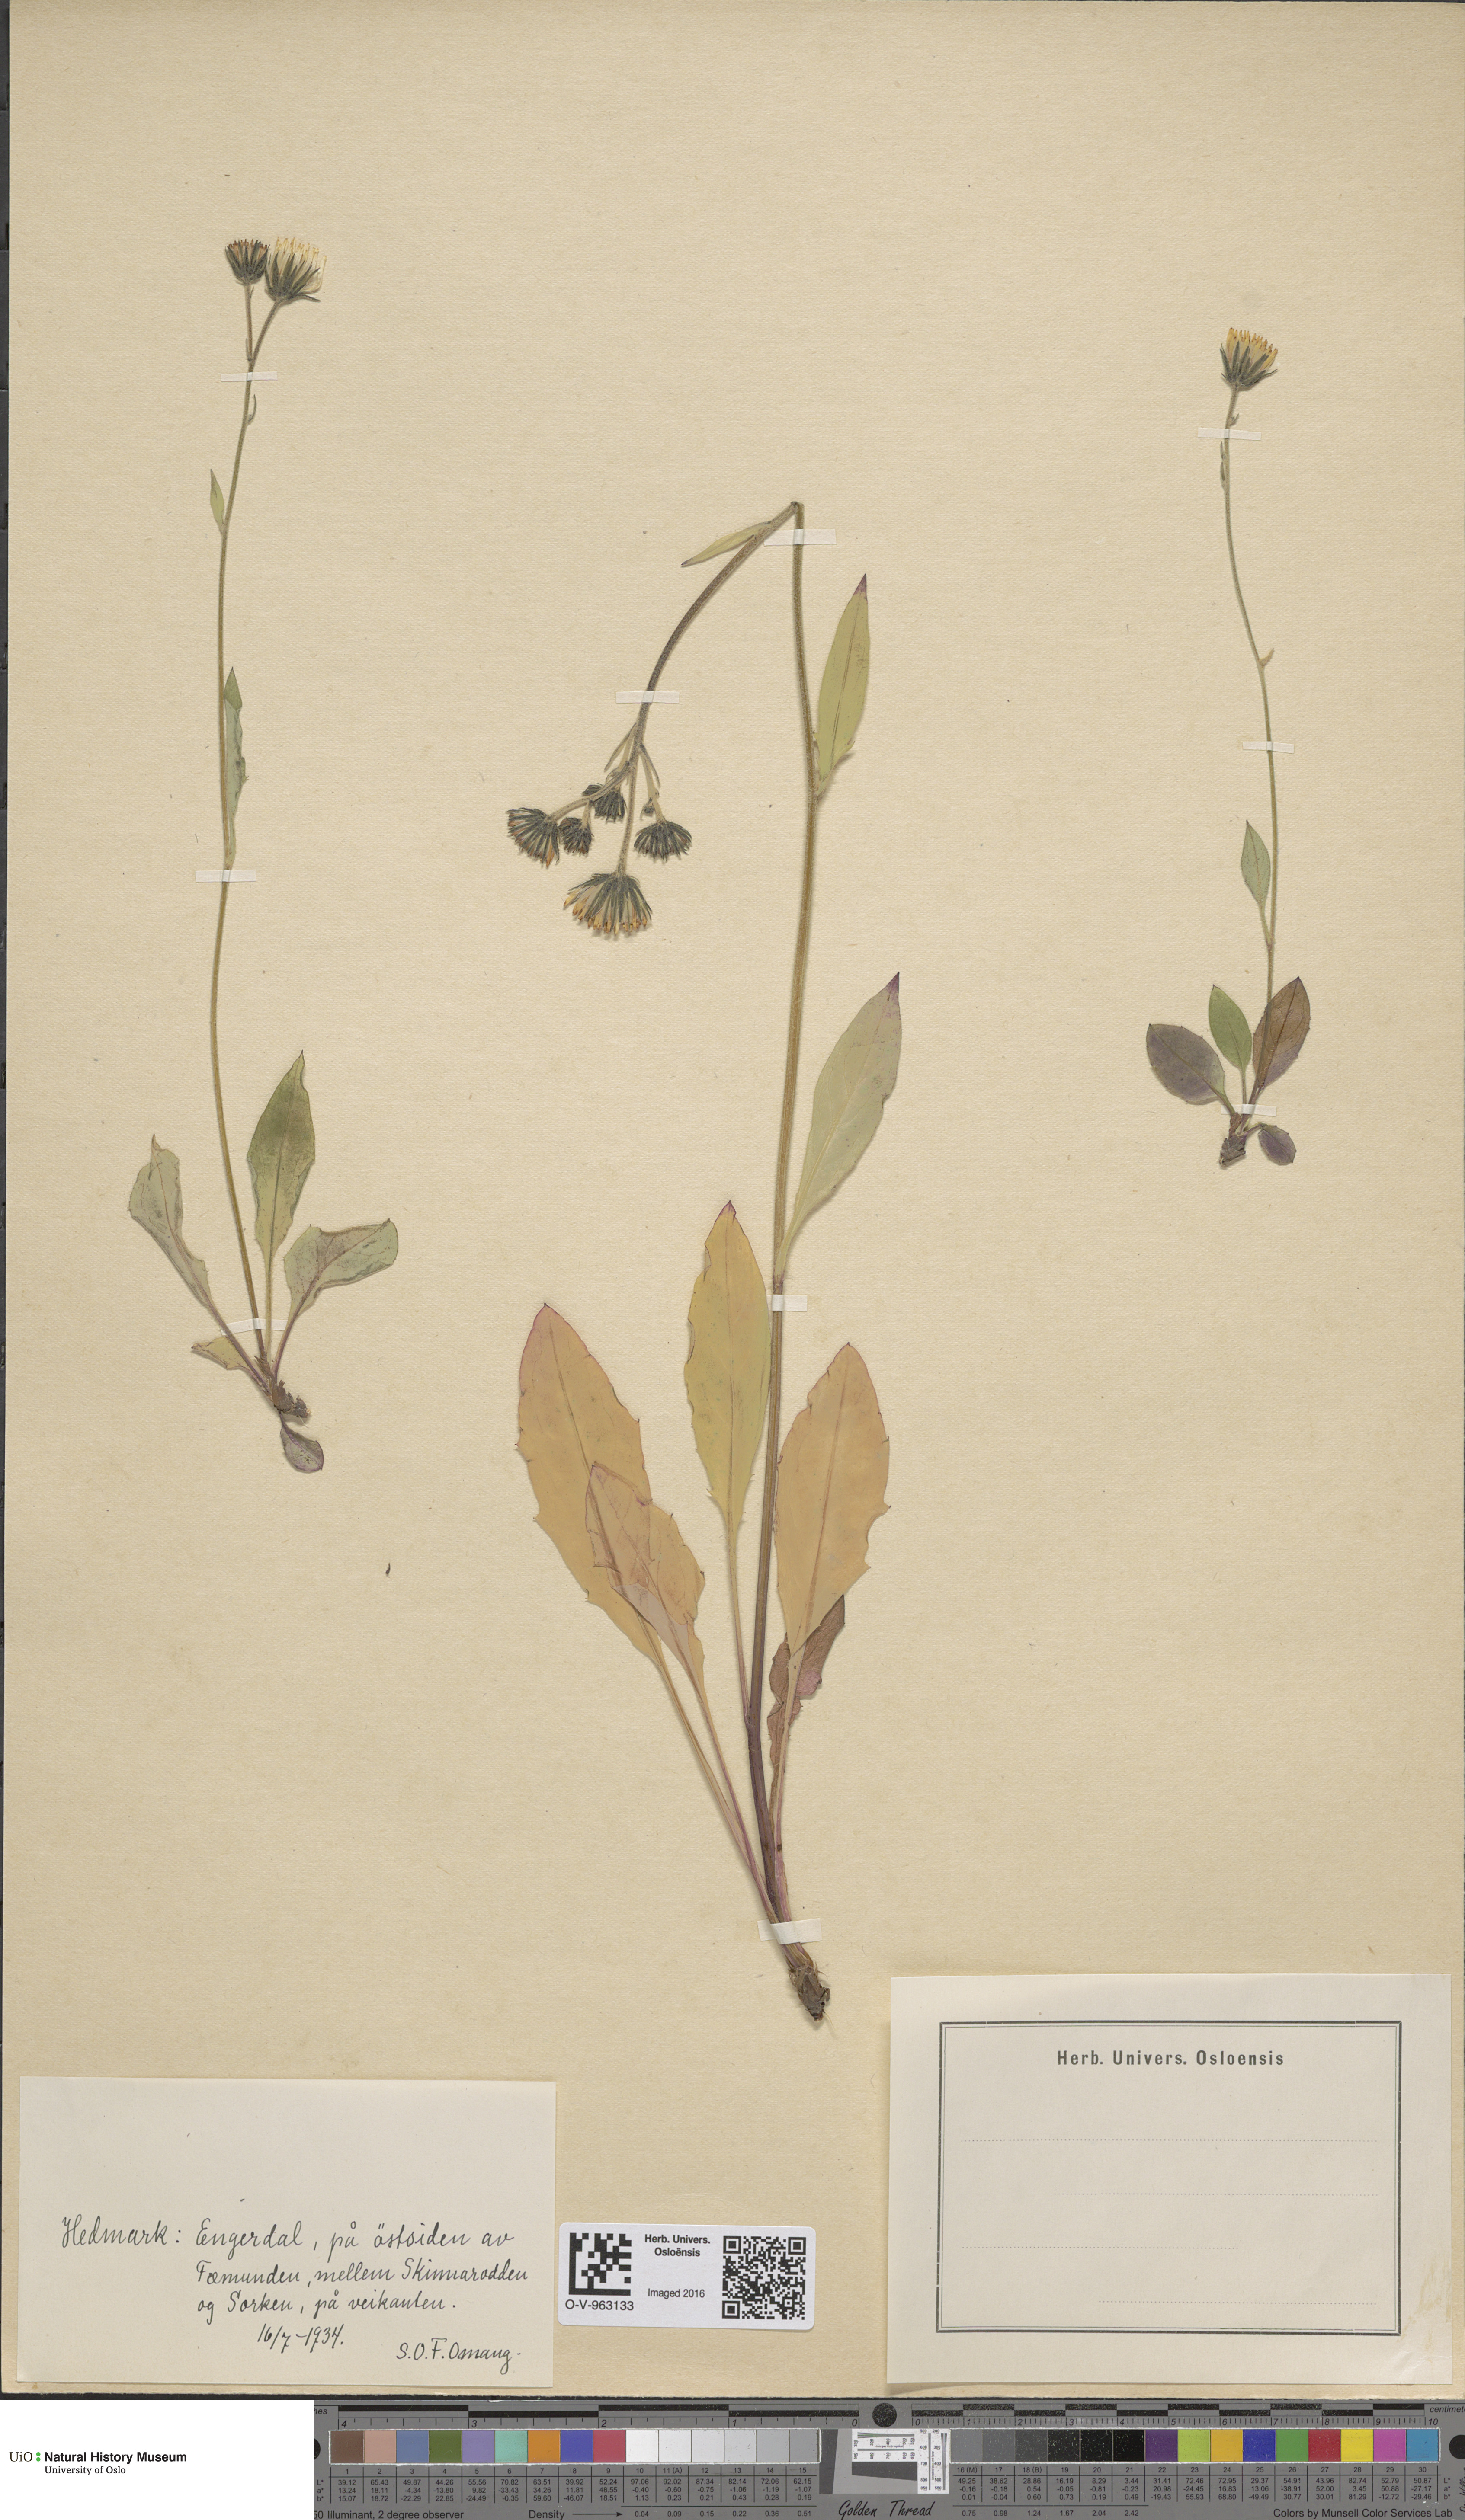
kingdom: Plantae
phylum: Tracheophyta
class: Magnoliopsida
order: Asterales
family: Asteraceae
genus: Hieracium
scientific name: Hieracium
